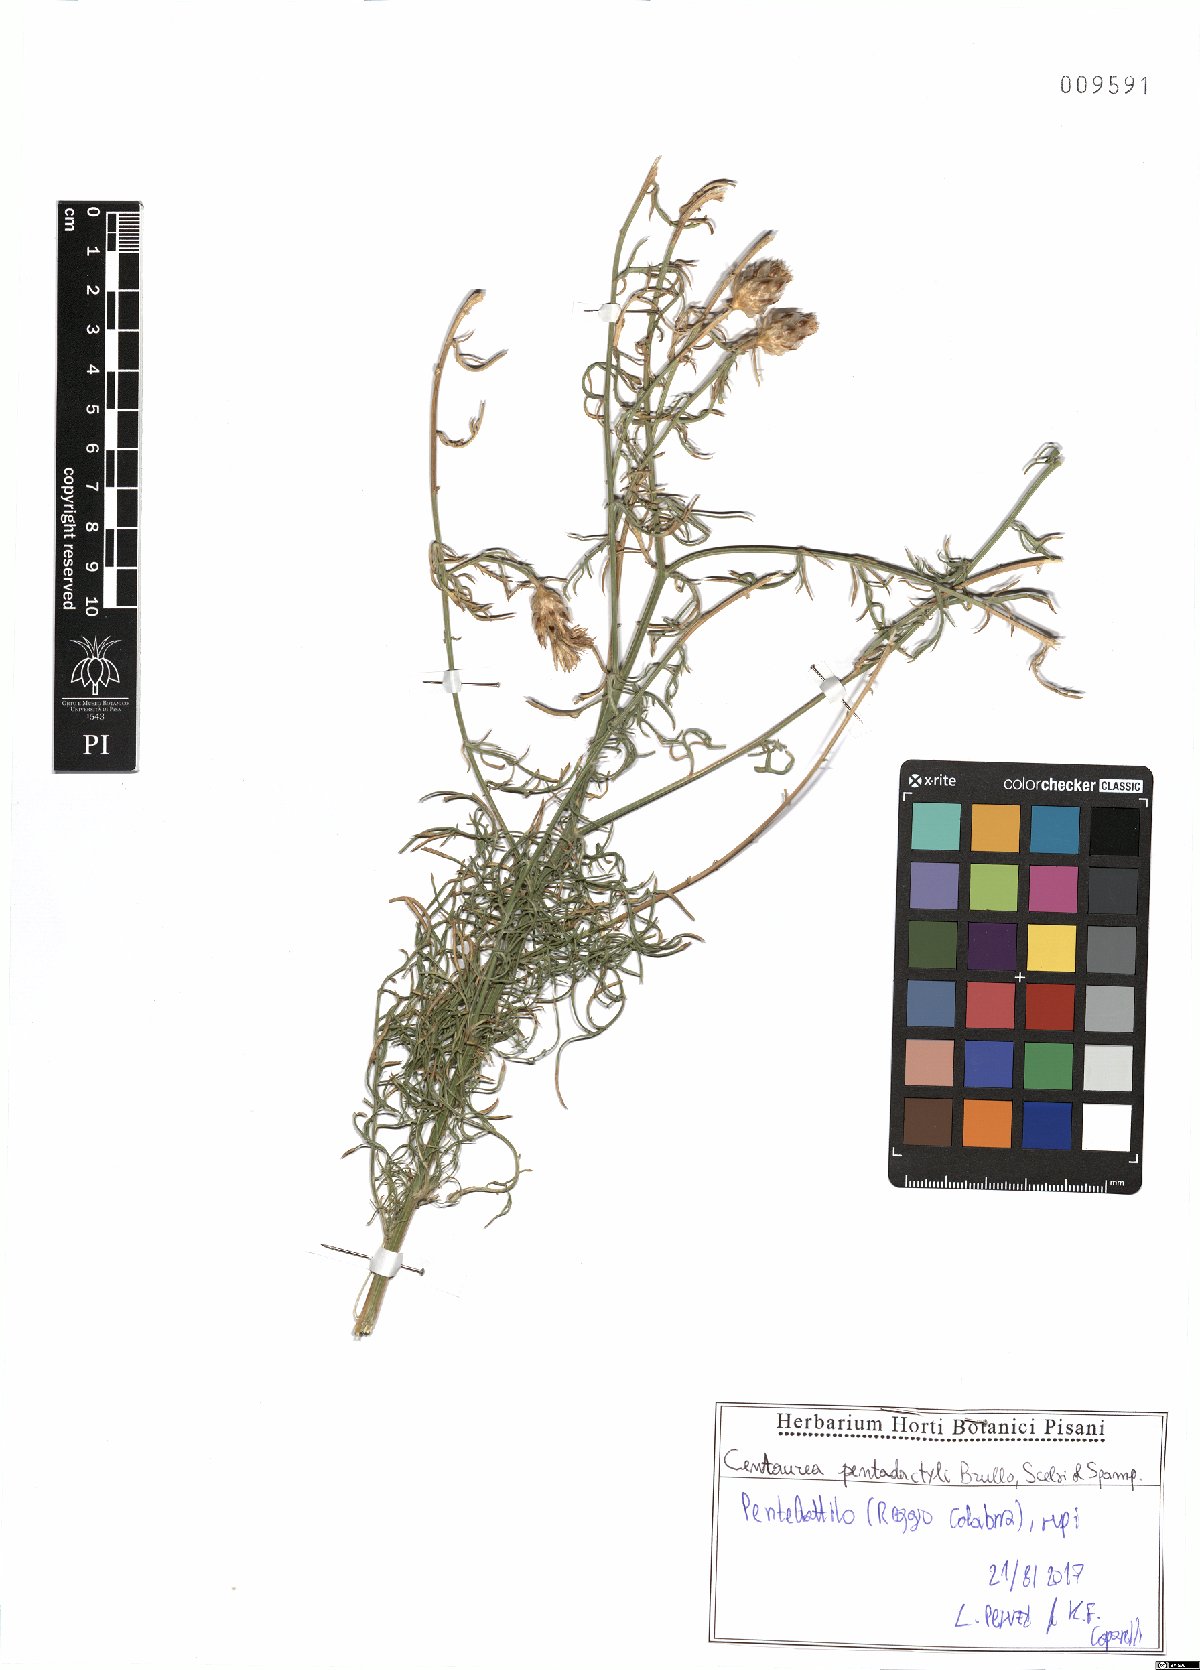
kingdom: Plantae
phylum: Tracheophyta
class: Magnoliopsida
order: Asterales
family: Asteraceae
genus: Centaurea
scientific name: Centaurea pentadactyli
